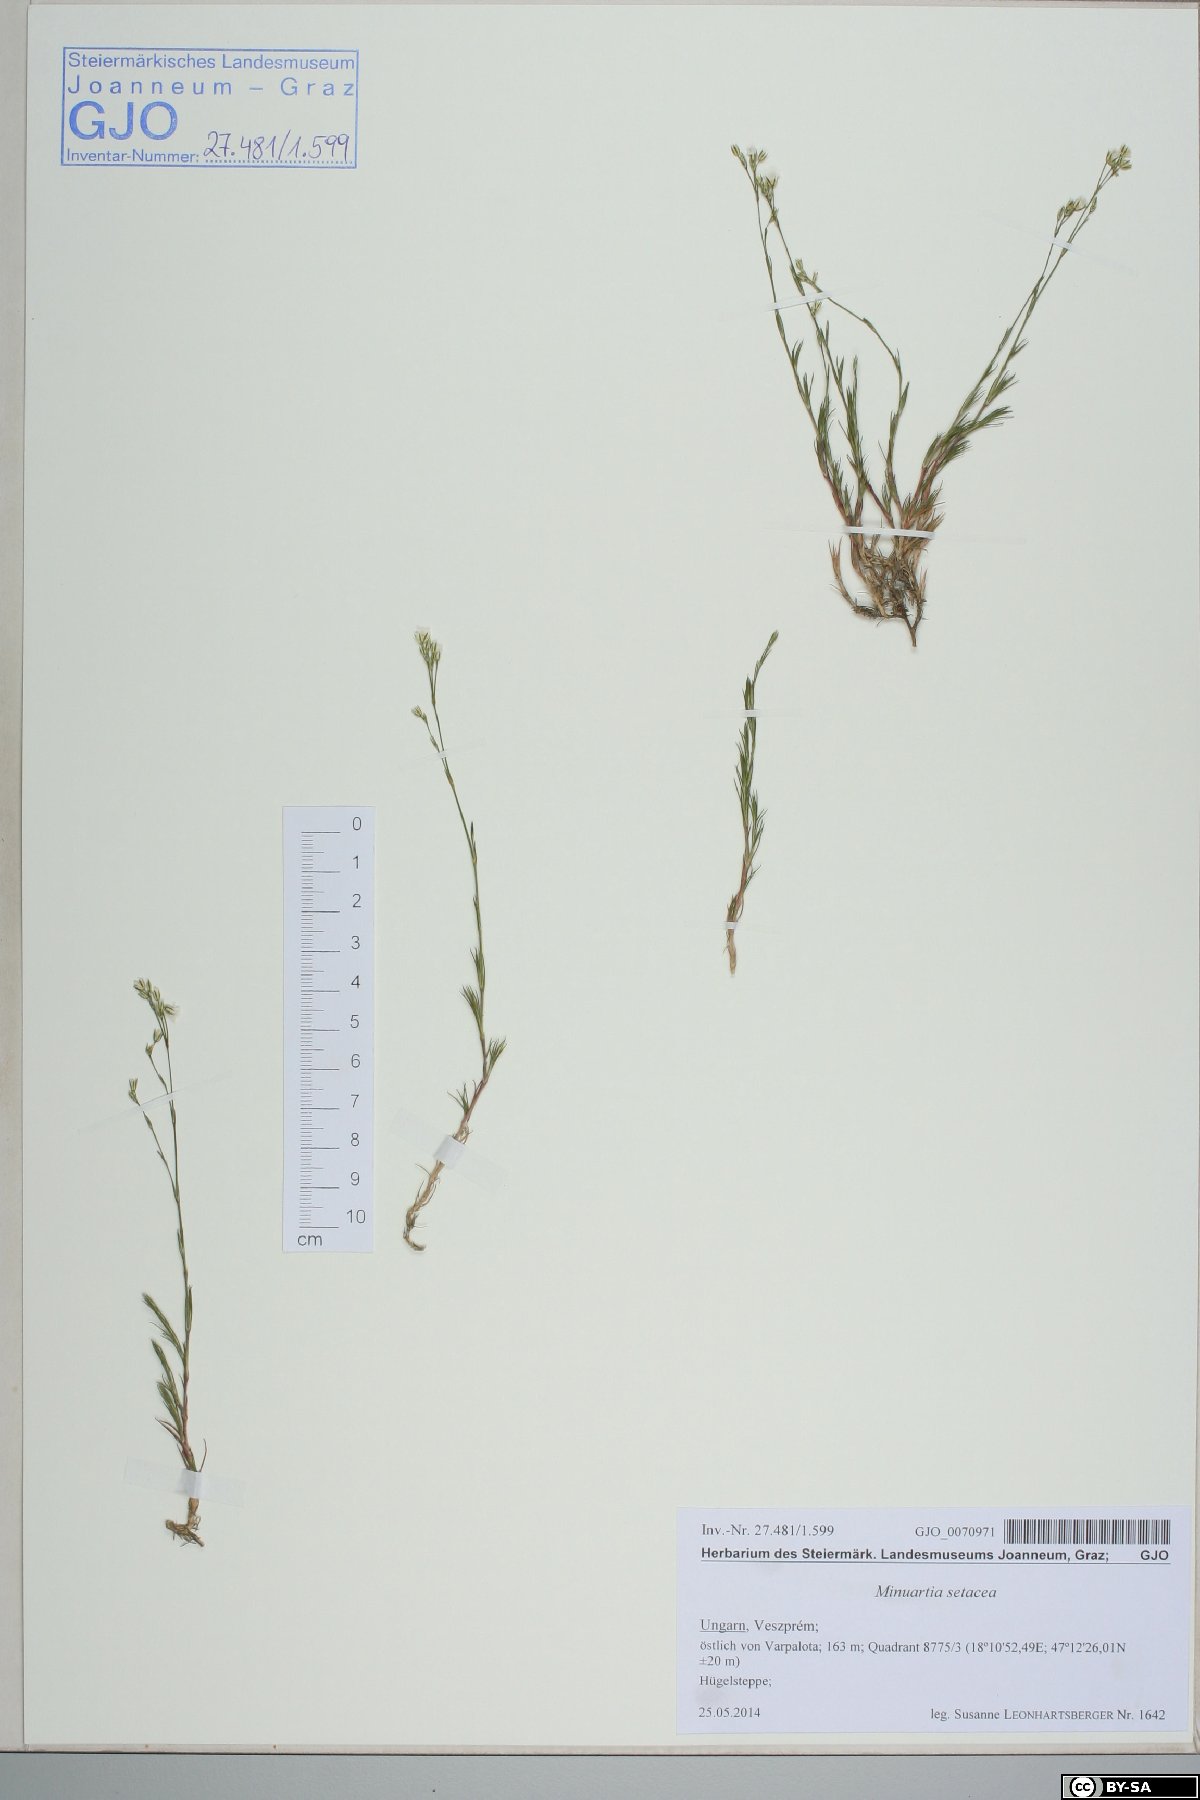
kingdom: Plantae
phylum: Tracheophyta
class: Magnoliopsida
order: Caryophyllales
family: Caryophyllaceae
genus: Minuartia
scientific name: Minuartia setacea
